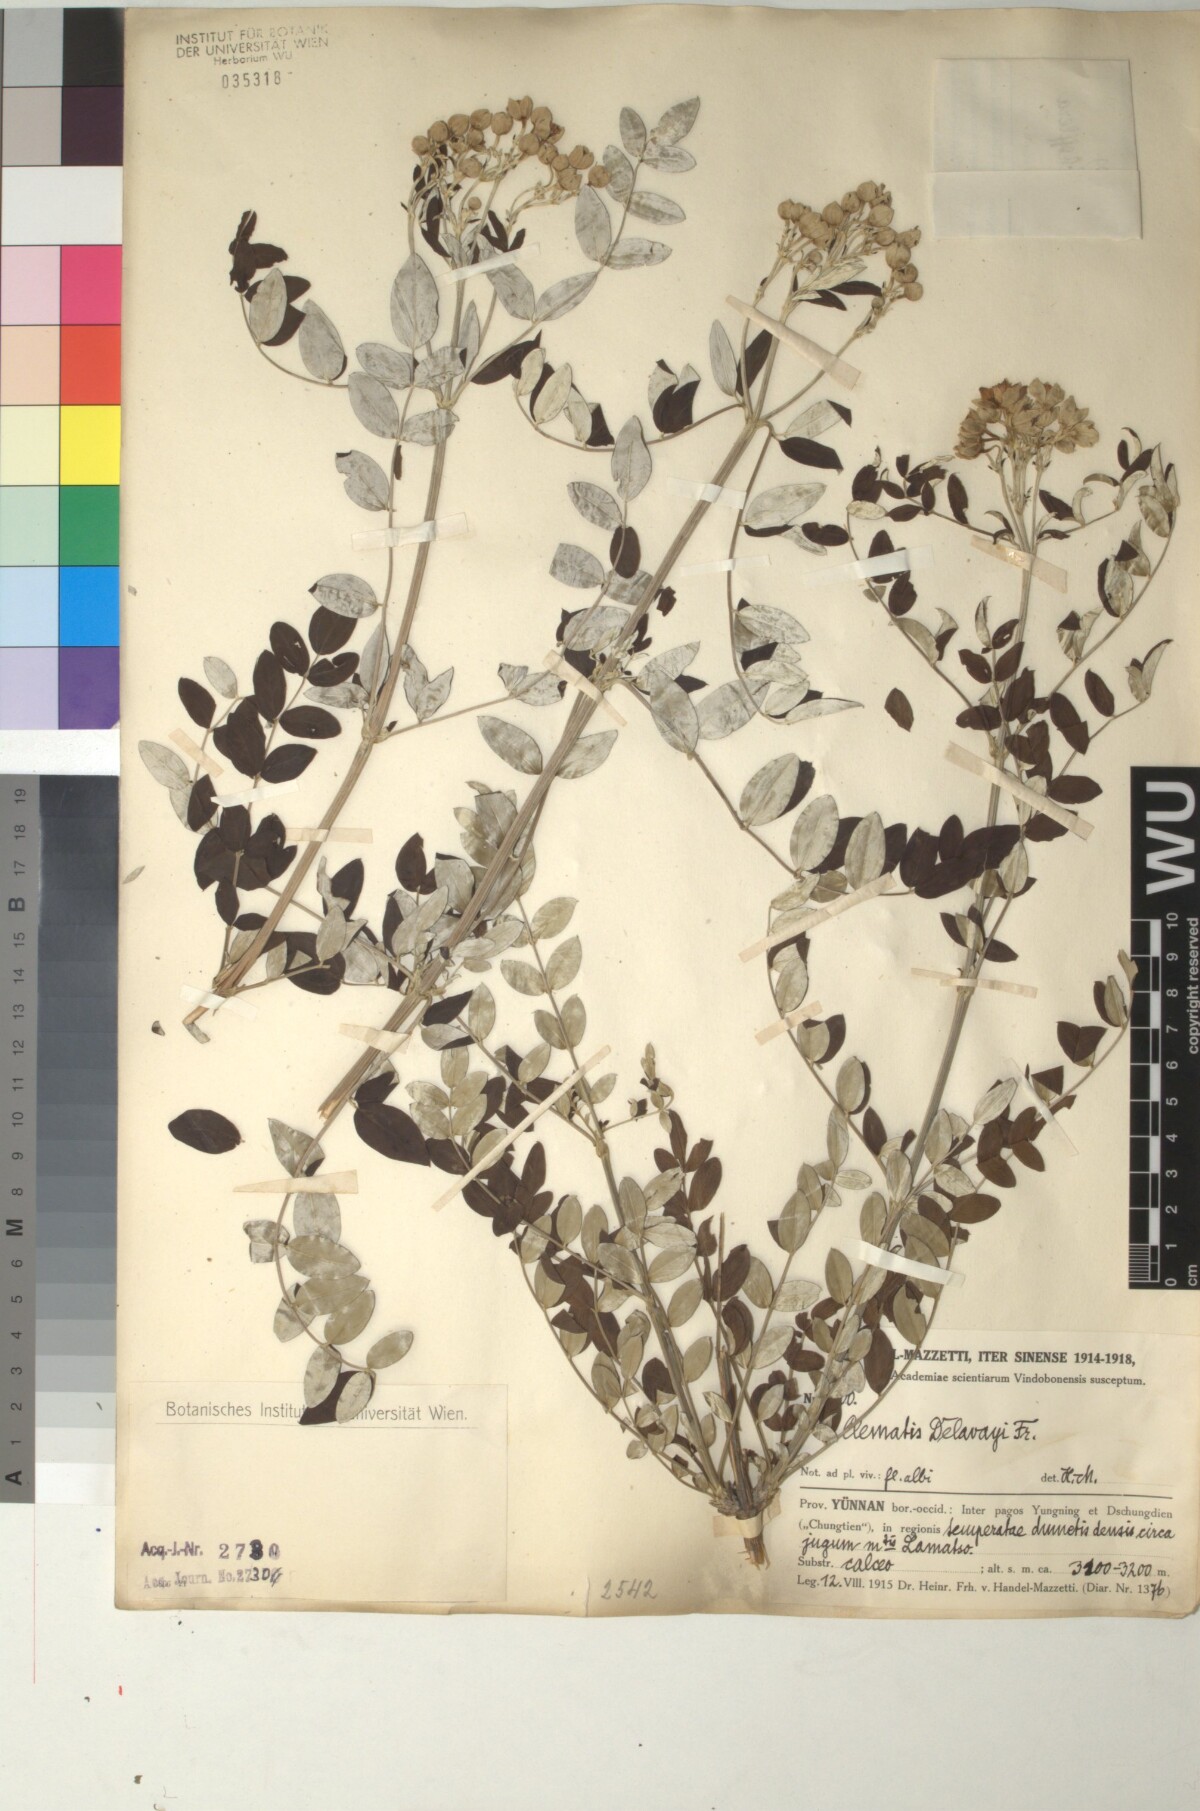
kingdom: Plantae
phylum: Tracheophyta
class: Magnoliopsida
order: Ranunculales
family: Ranunculaceae
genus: Clematis
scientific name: Clematis delavayi
